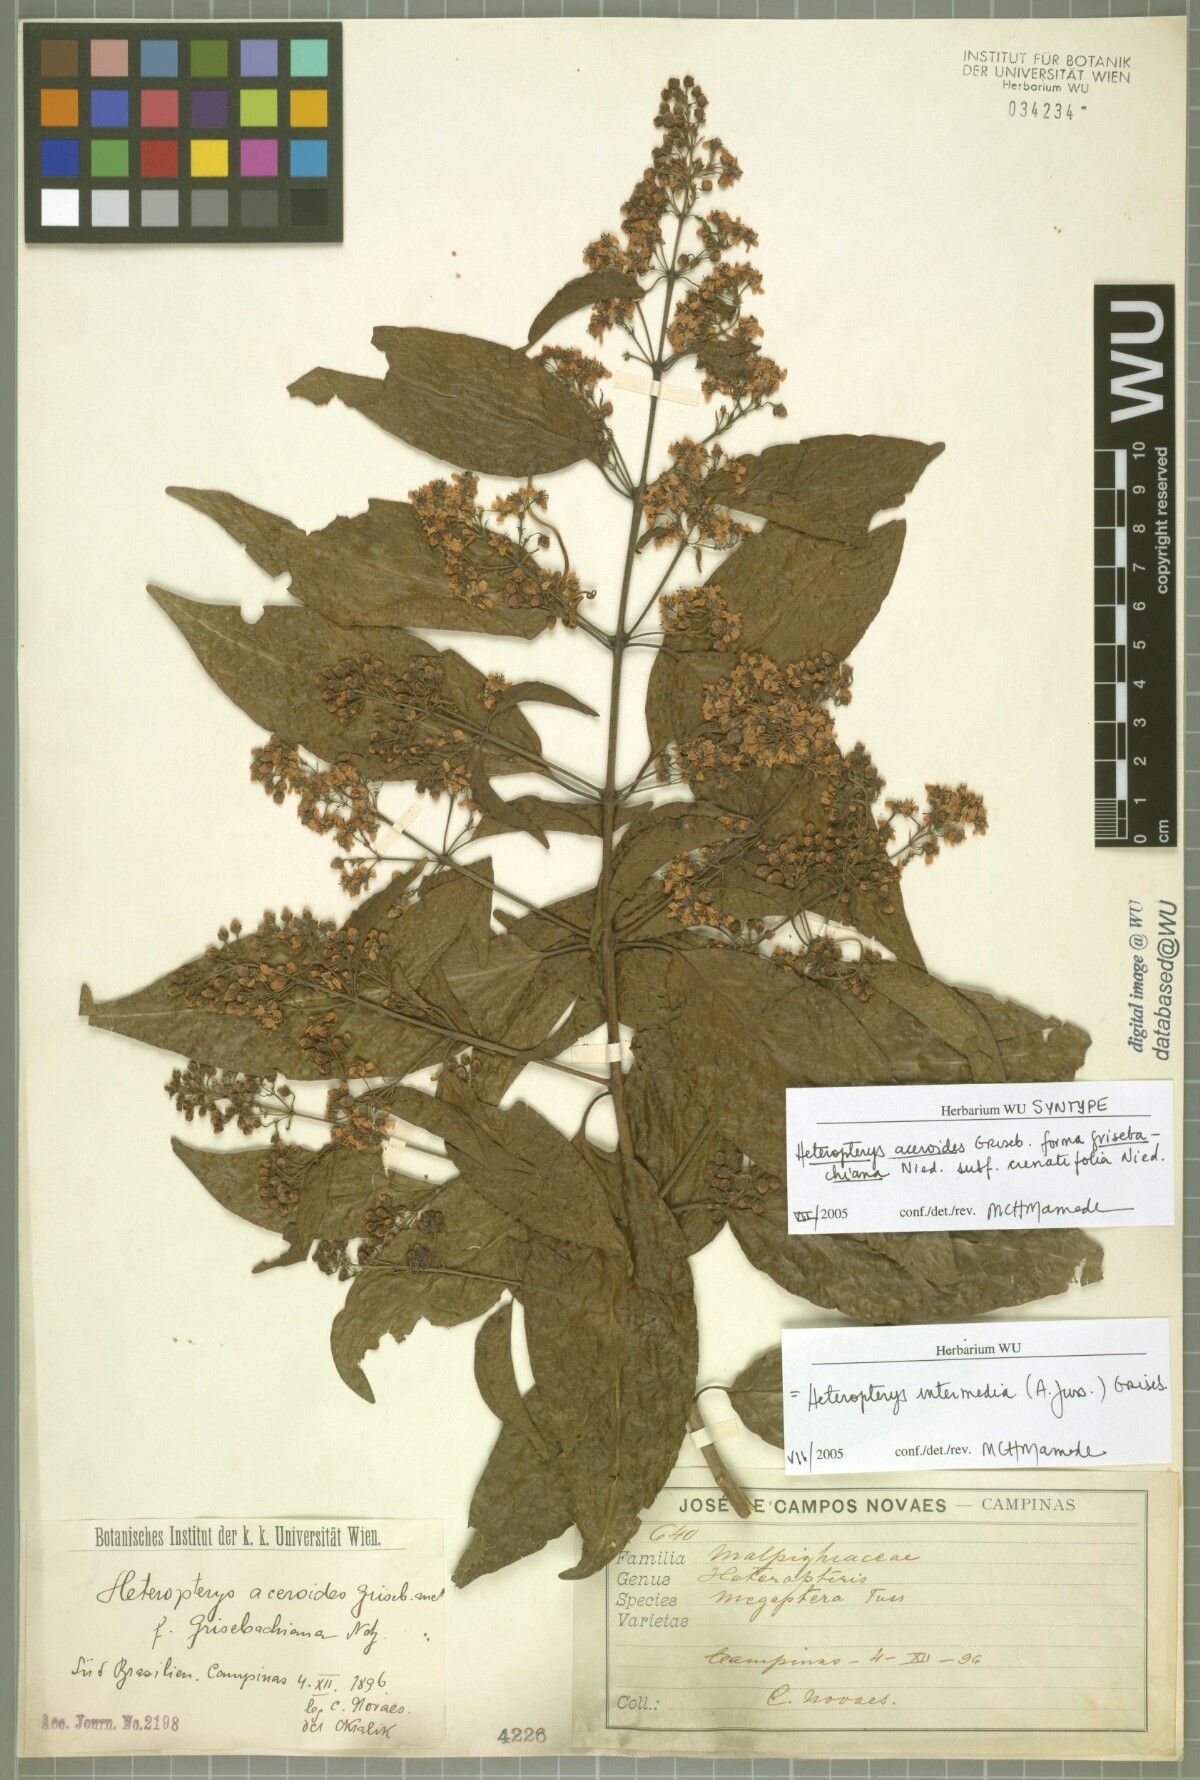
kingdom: Plantae
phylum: Tracheophyta
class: Magnoliopsida
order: Malpighiales
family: Malpighiaceae
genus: Heteropterys
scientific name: Heteropterys intermedia
